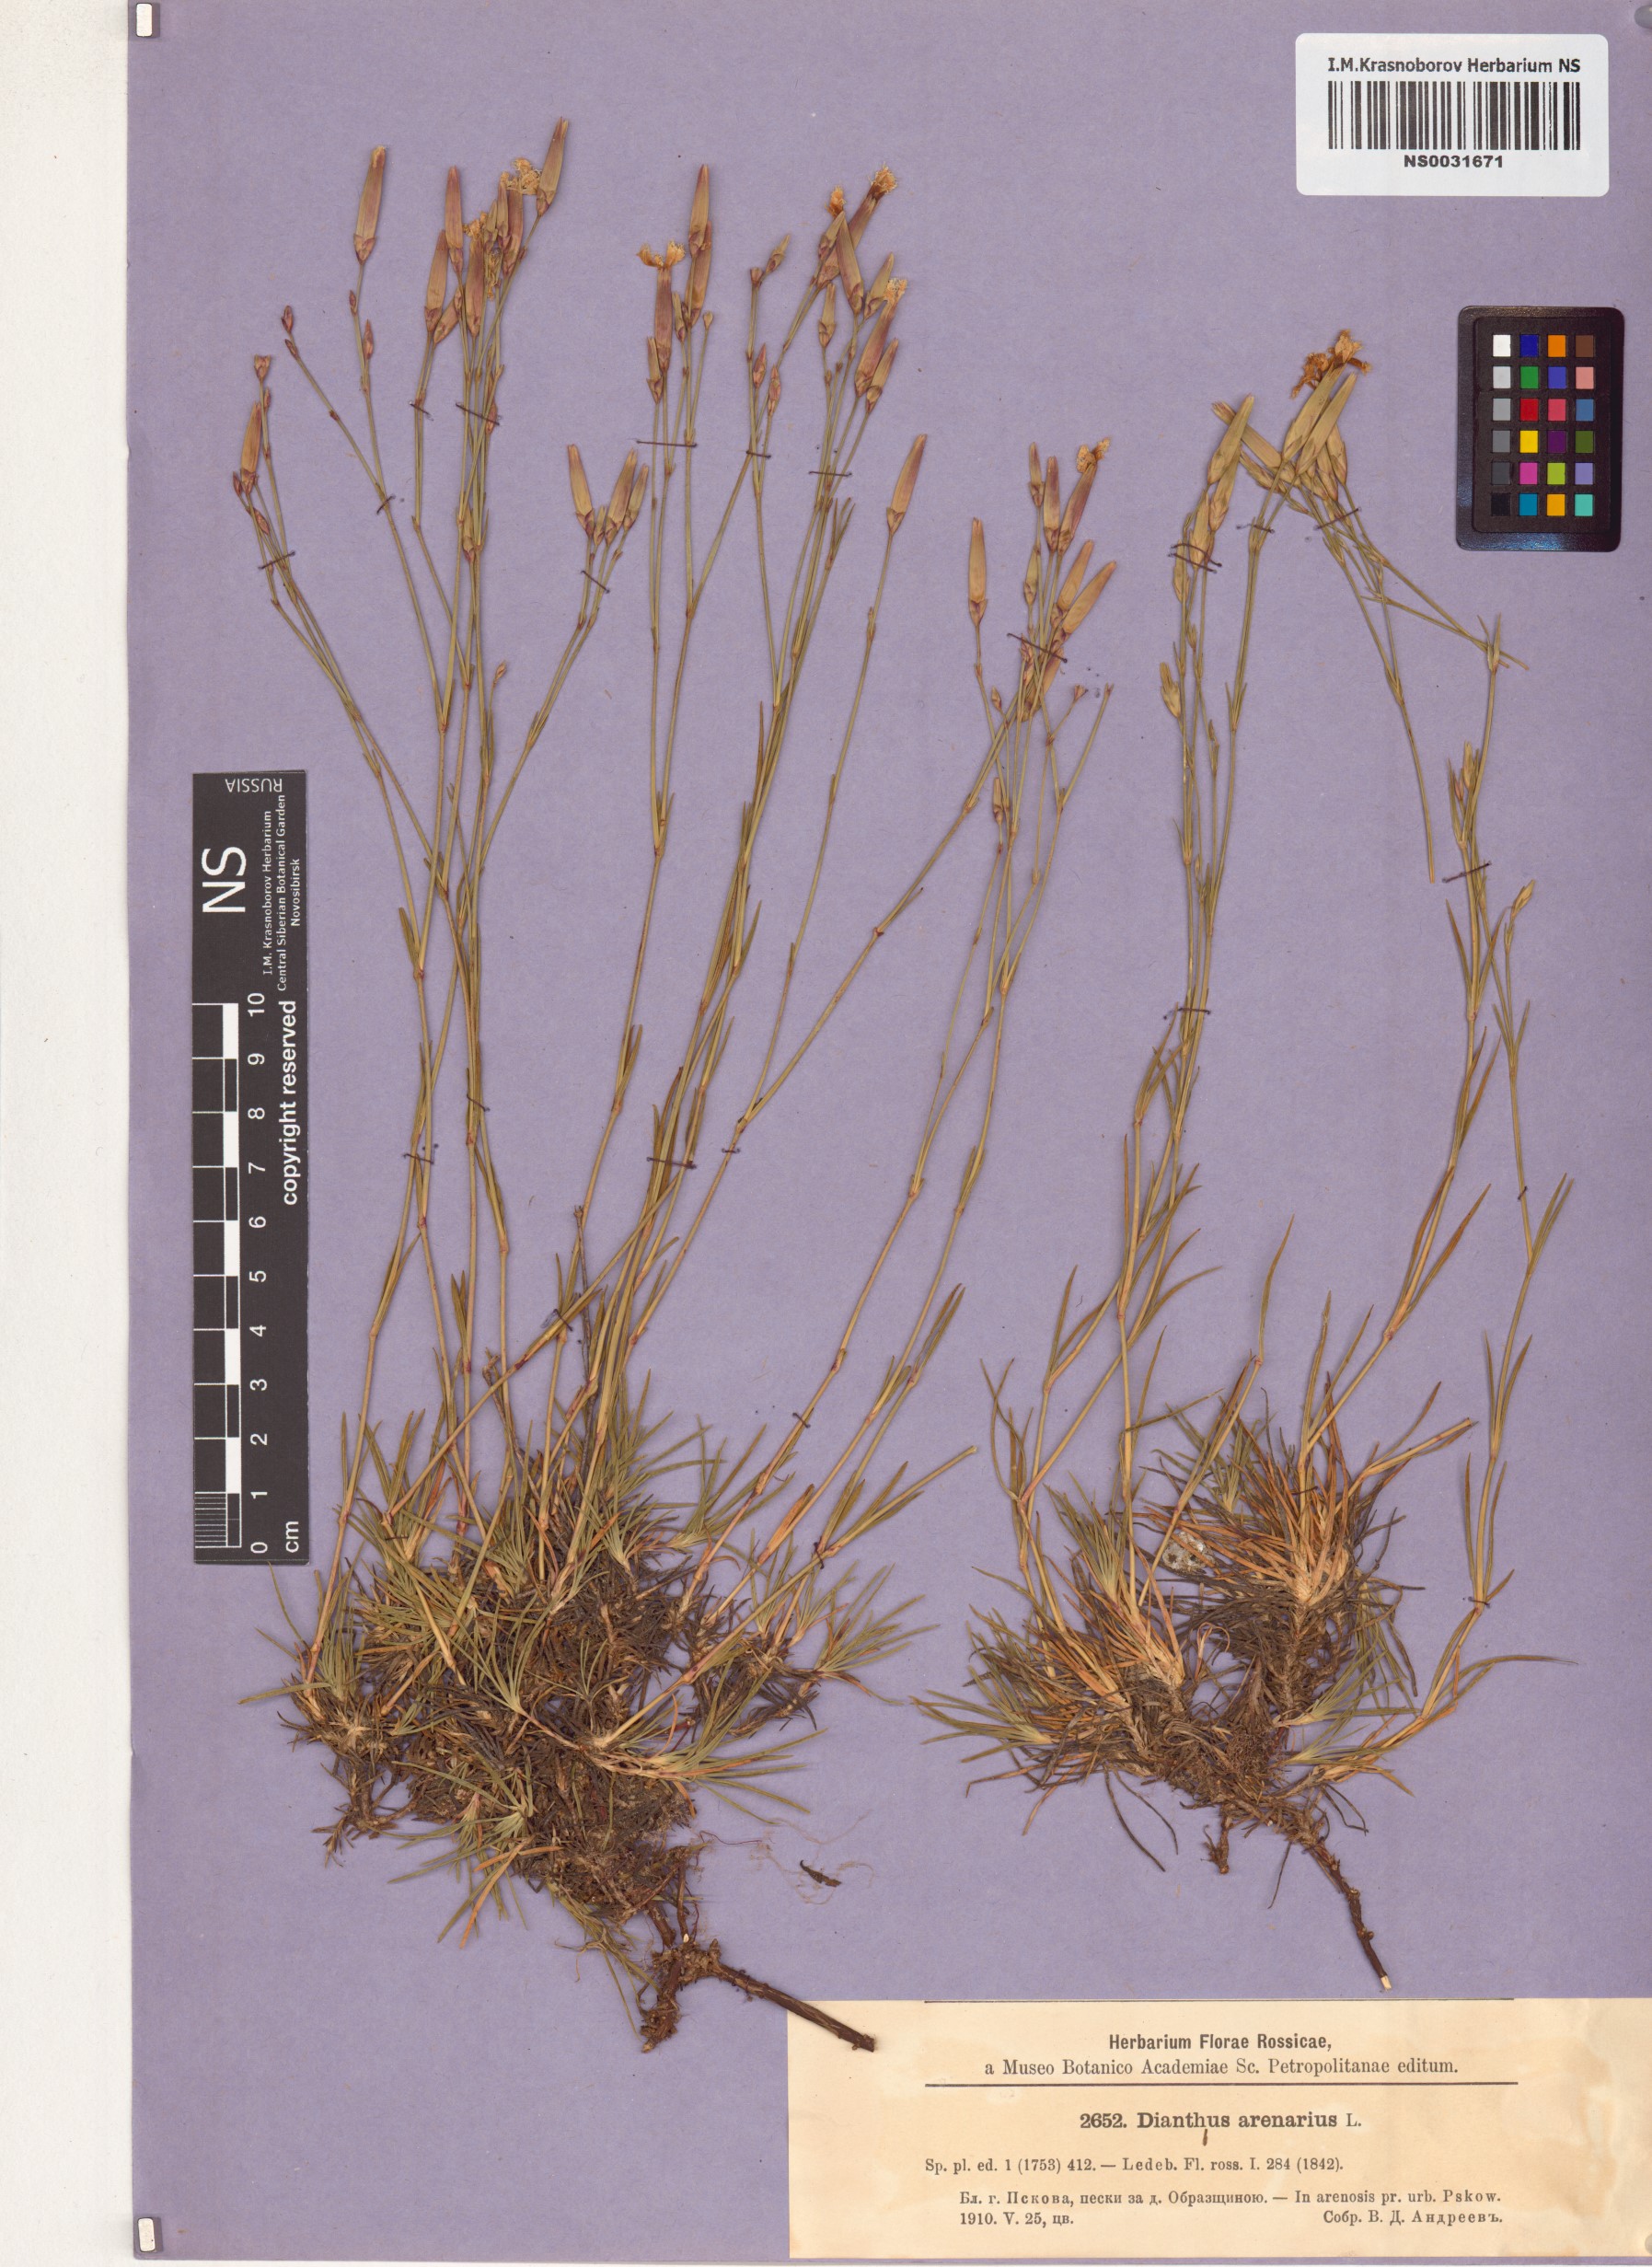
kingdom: Plantae
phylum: Tracheophyta
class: Magnoliopsida
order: Caryophyllales
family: Caryophyllaceae
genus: Dianthus
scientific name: Dianthus arenarius
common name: Stone pink
